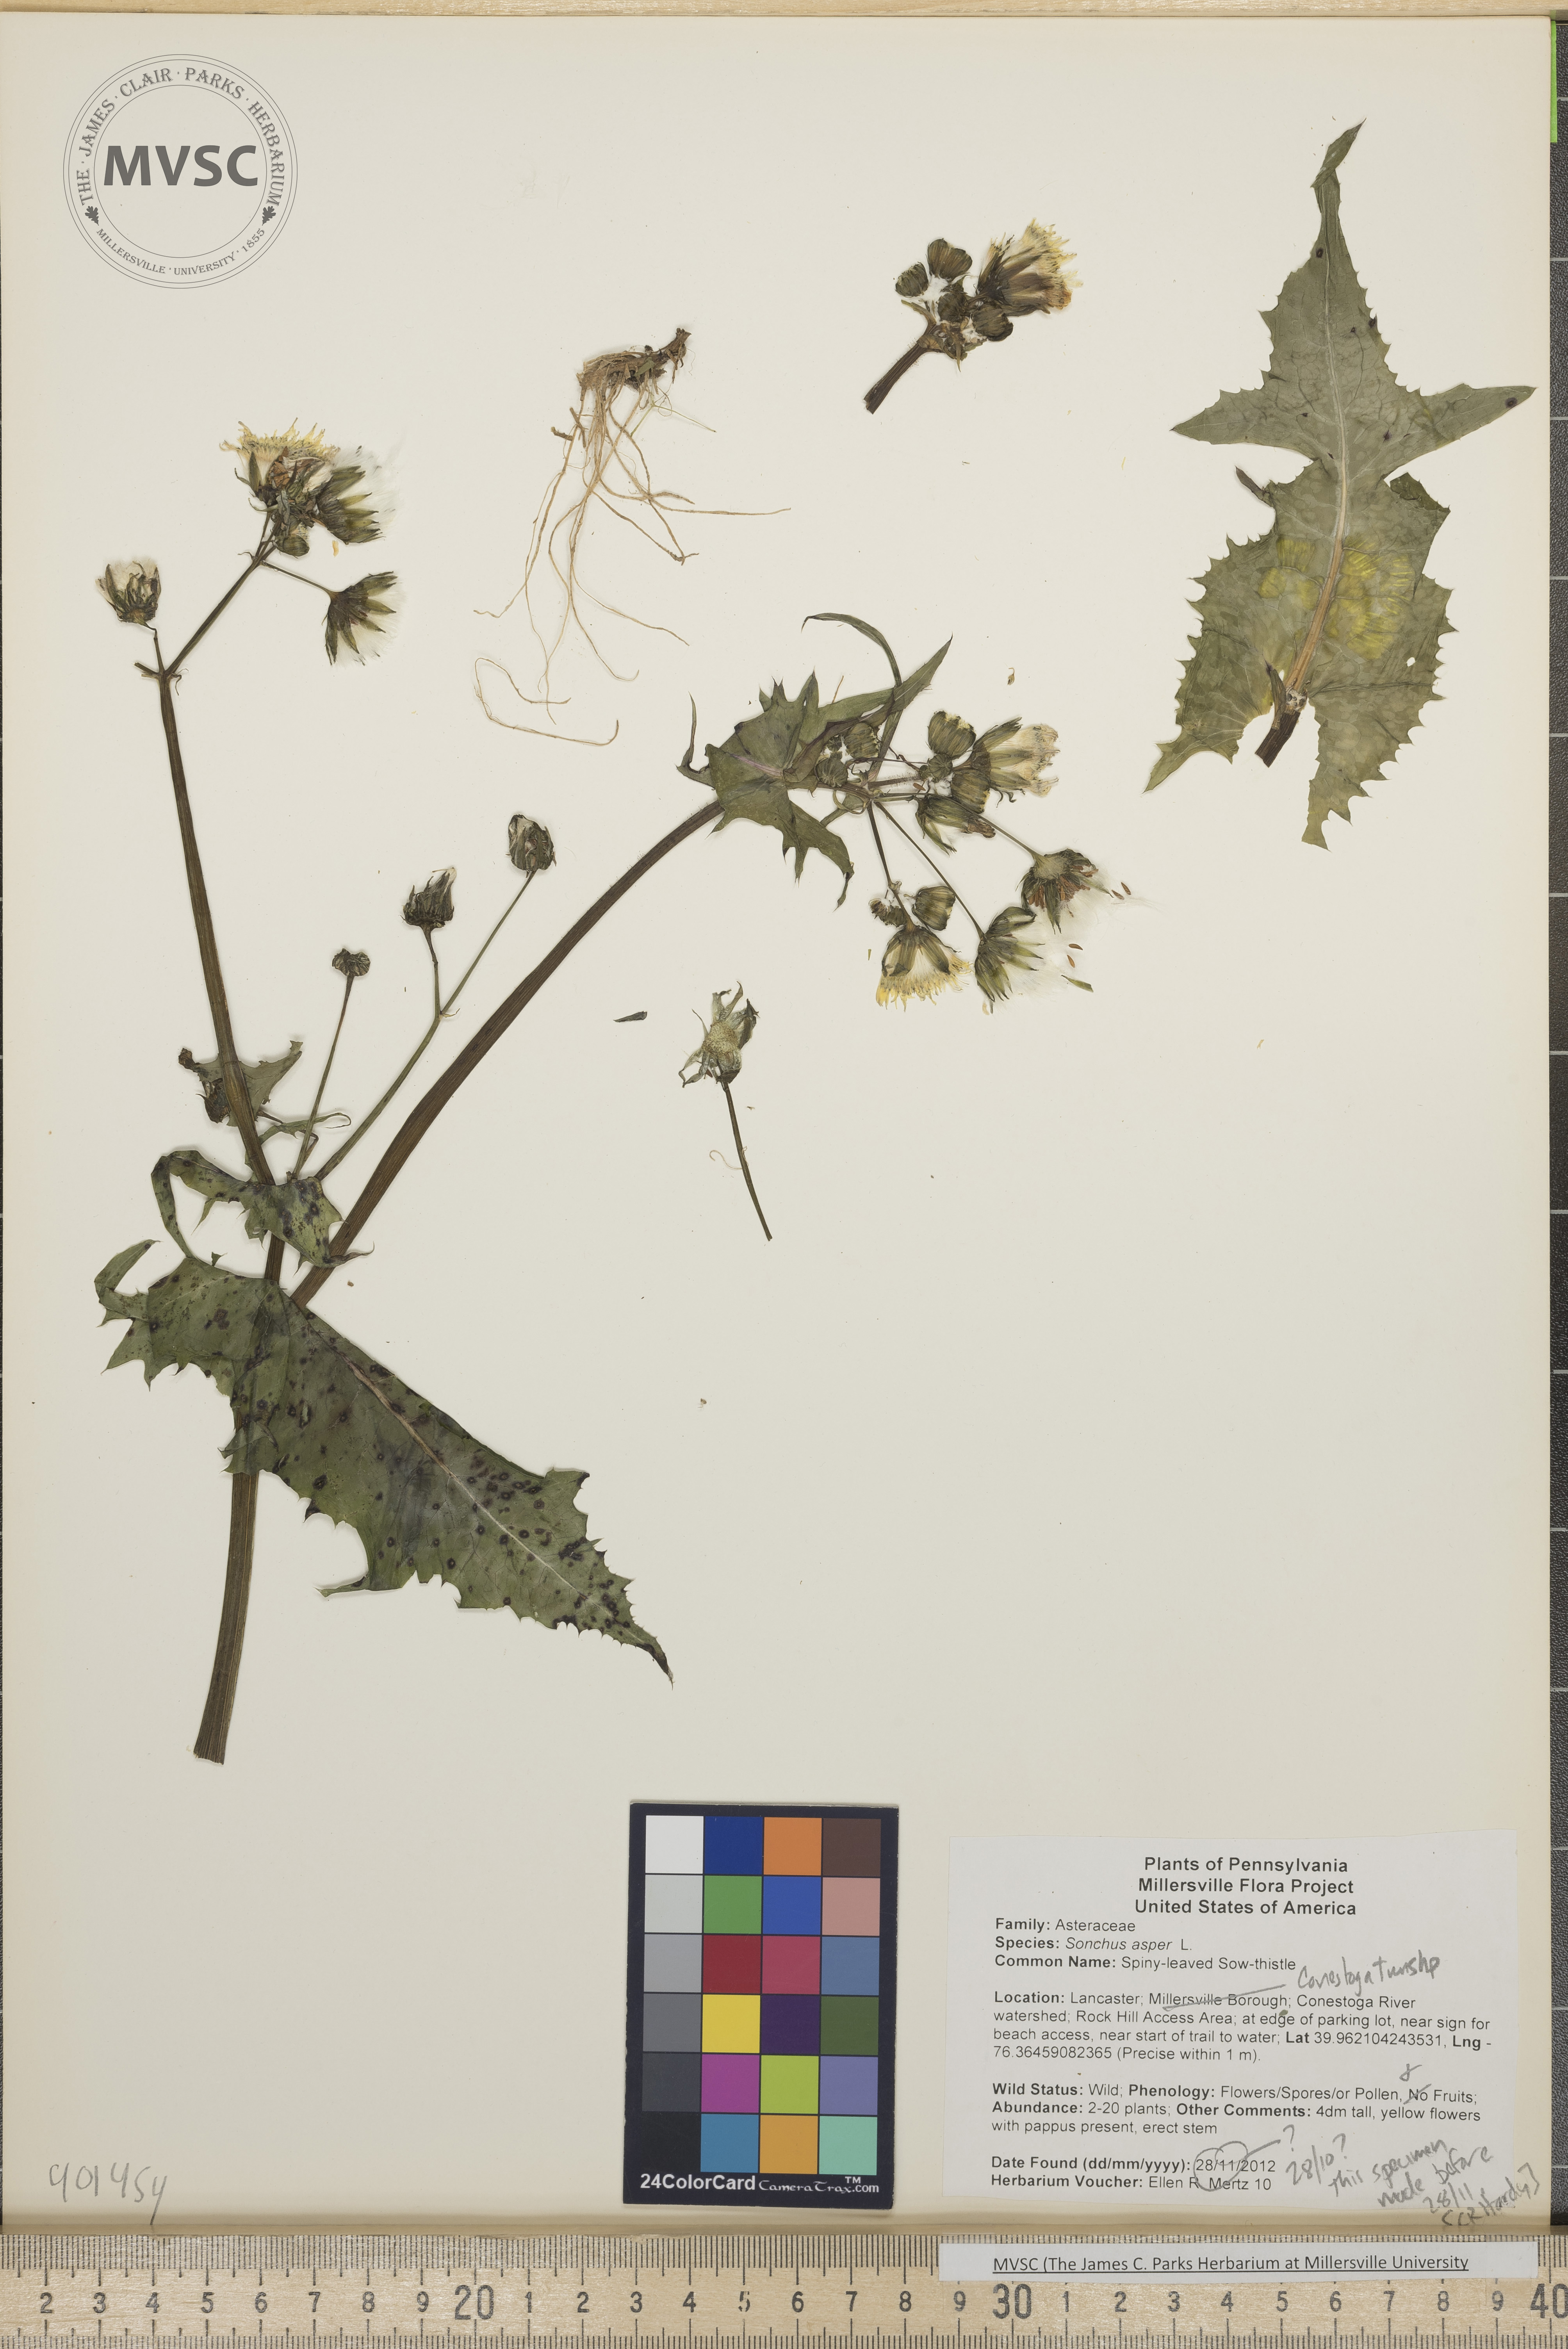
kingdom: Plantae
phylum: Tracheophyta
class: Magnoliopsida
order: Asterales
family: Asteraceae
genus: Sonchus
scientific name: Sonchus asper
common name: Spiny-leaved Sow-thistle
